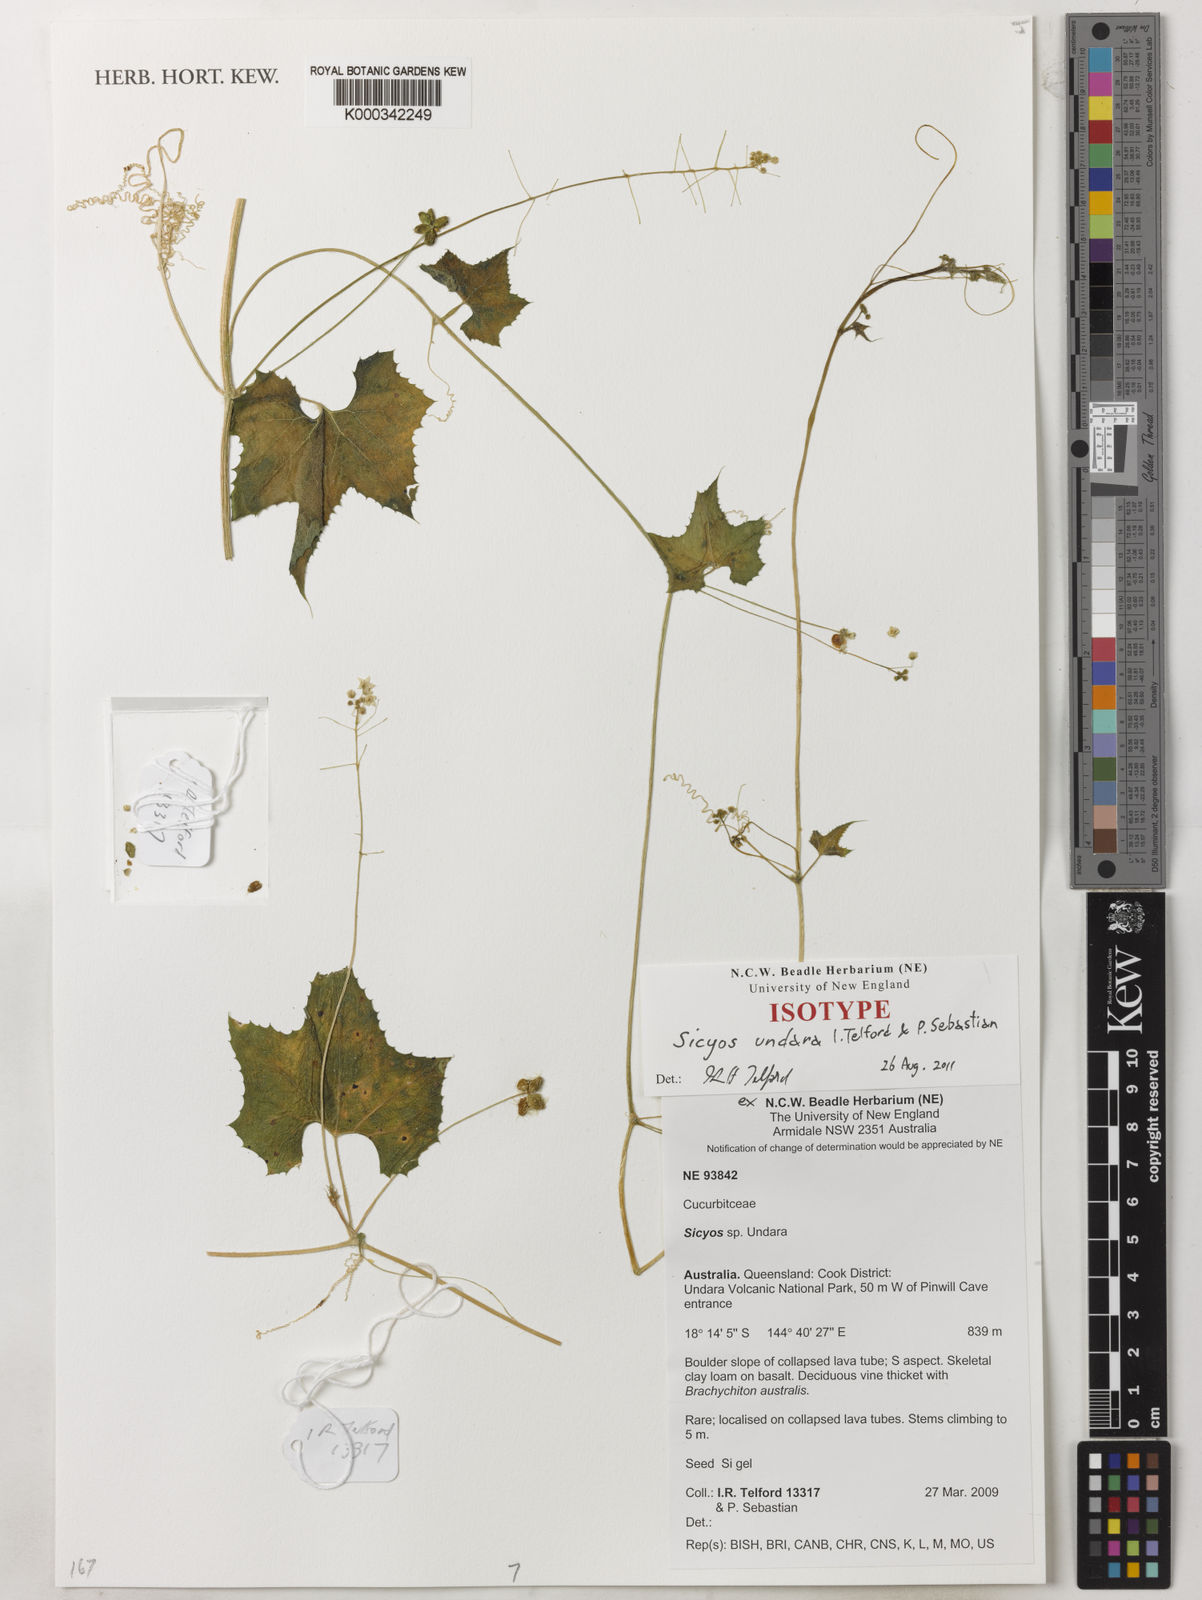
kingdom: Plantae
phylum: Tracheophyta
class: Magnoliopsida
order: Cucurbitales
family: Cucurbitaceae
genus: Sicyos
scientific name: Sicyos undara
